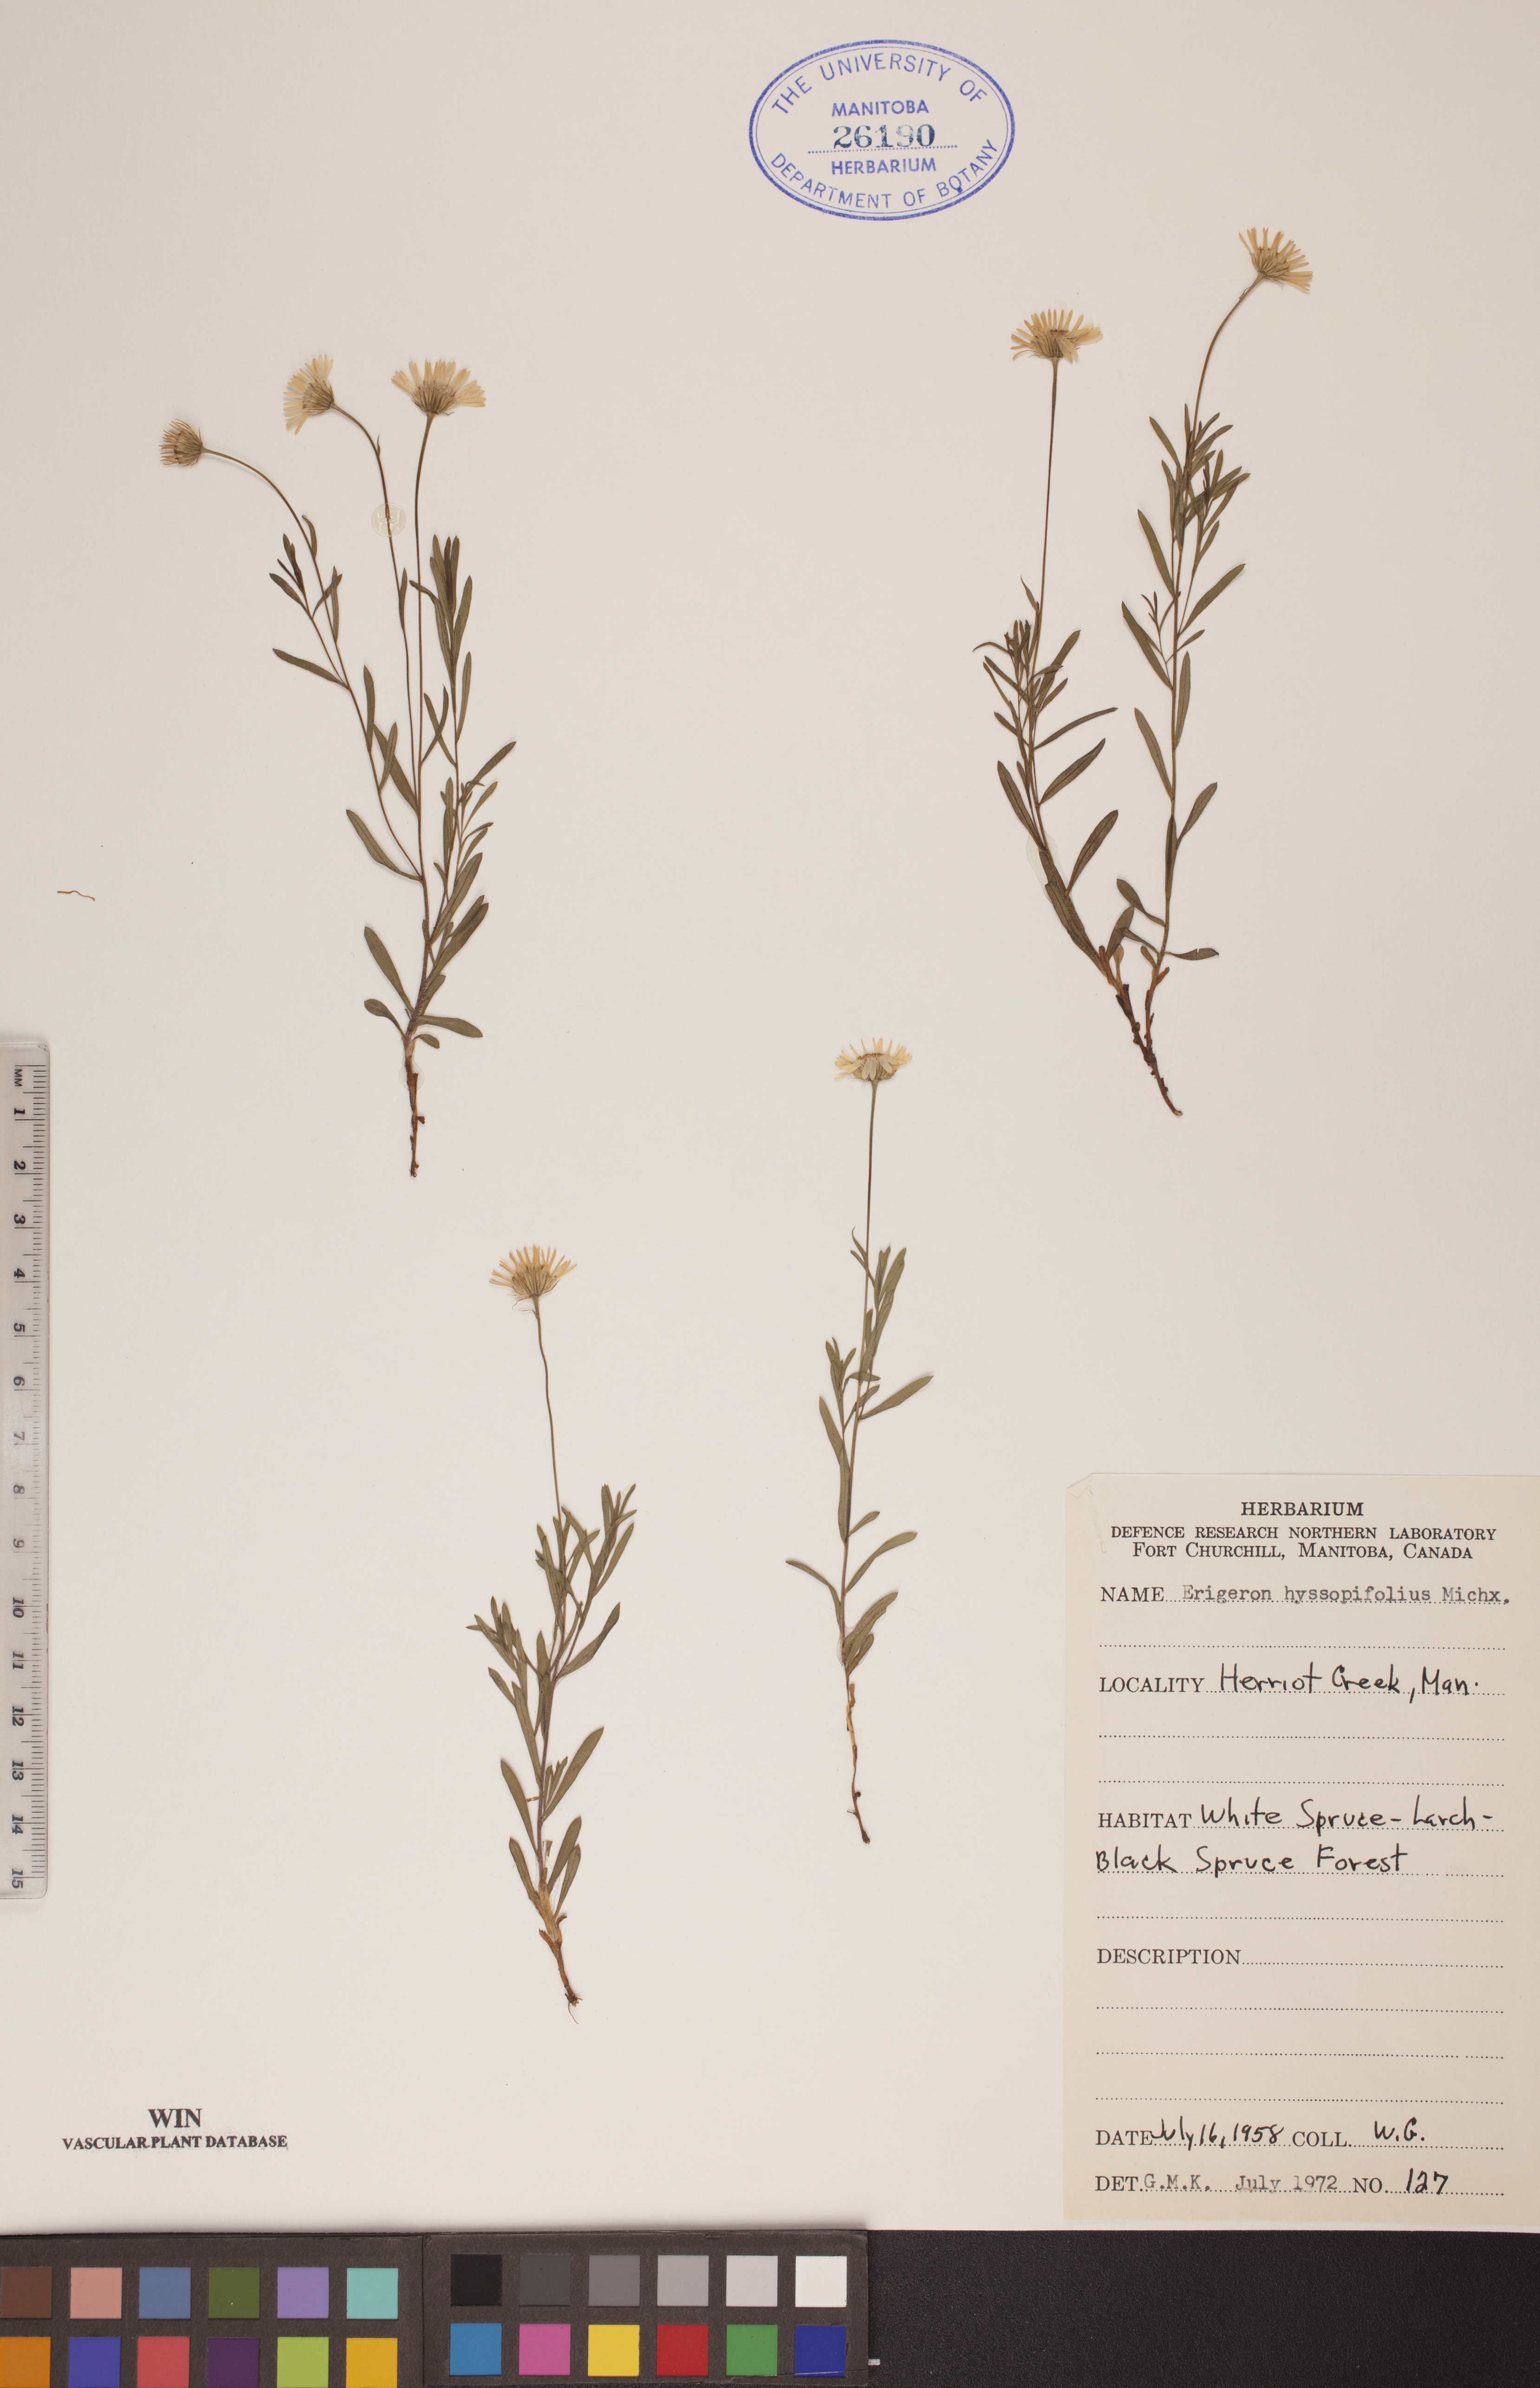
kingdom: Plantae
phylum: Tracheophyta
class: Magnoliopsida
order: Asterales
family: Asteraceae
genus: Erigeron
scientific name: Erigeron hyssopifolius
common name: Daisy fleabane
